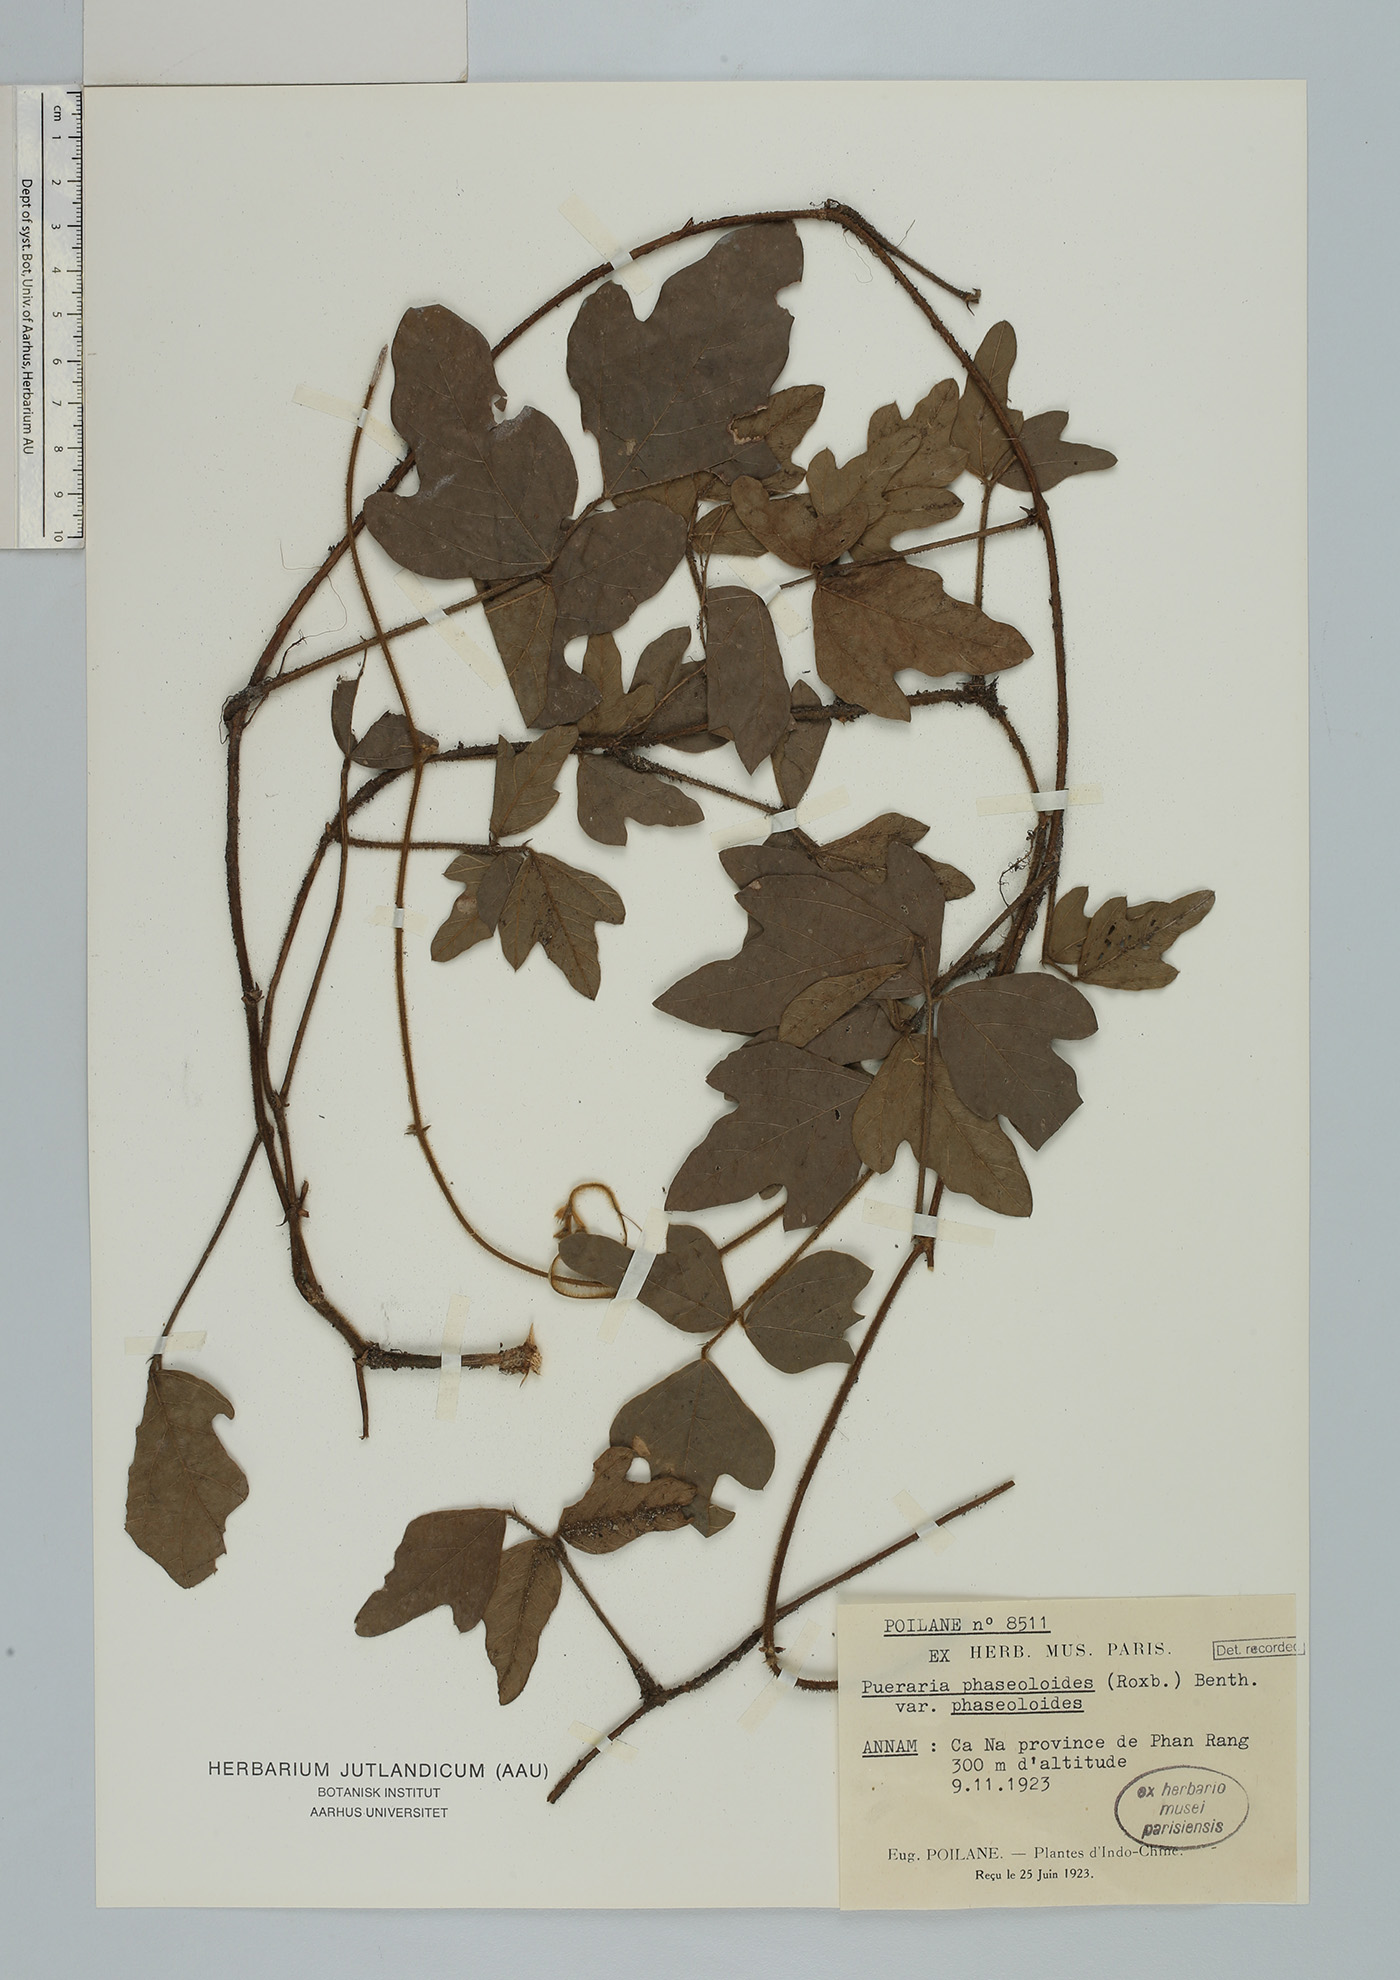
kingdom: Plantae
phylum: Tracheophyta
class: Magnoliopsida
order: Fabales
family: Fabaceae
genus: Neustanthus
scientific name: Neustanthus phaseoloides
